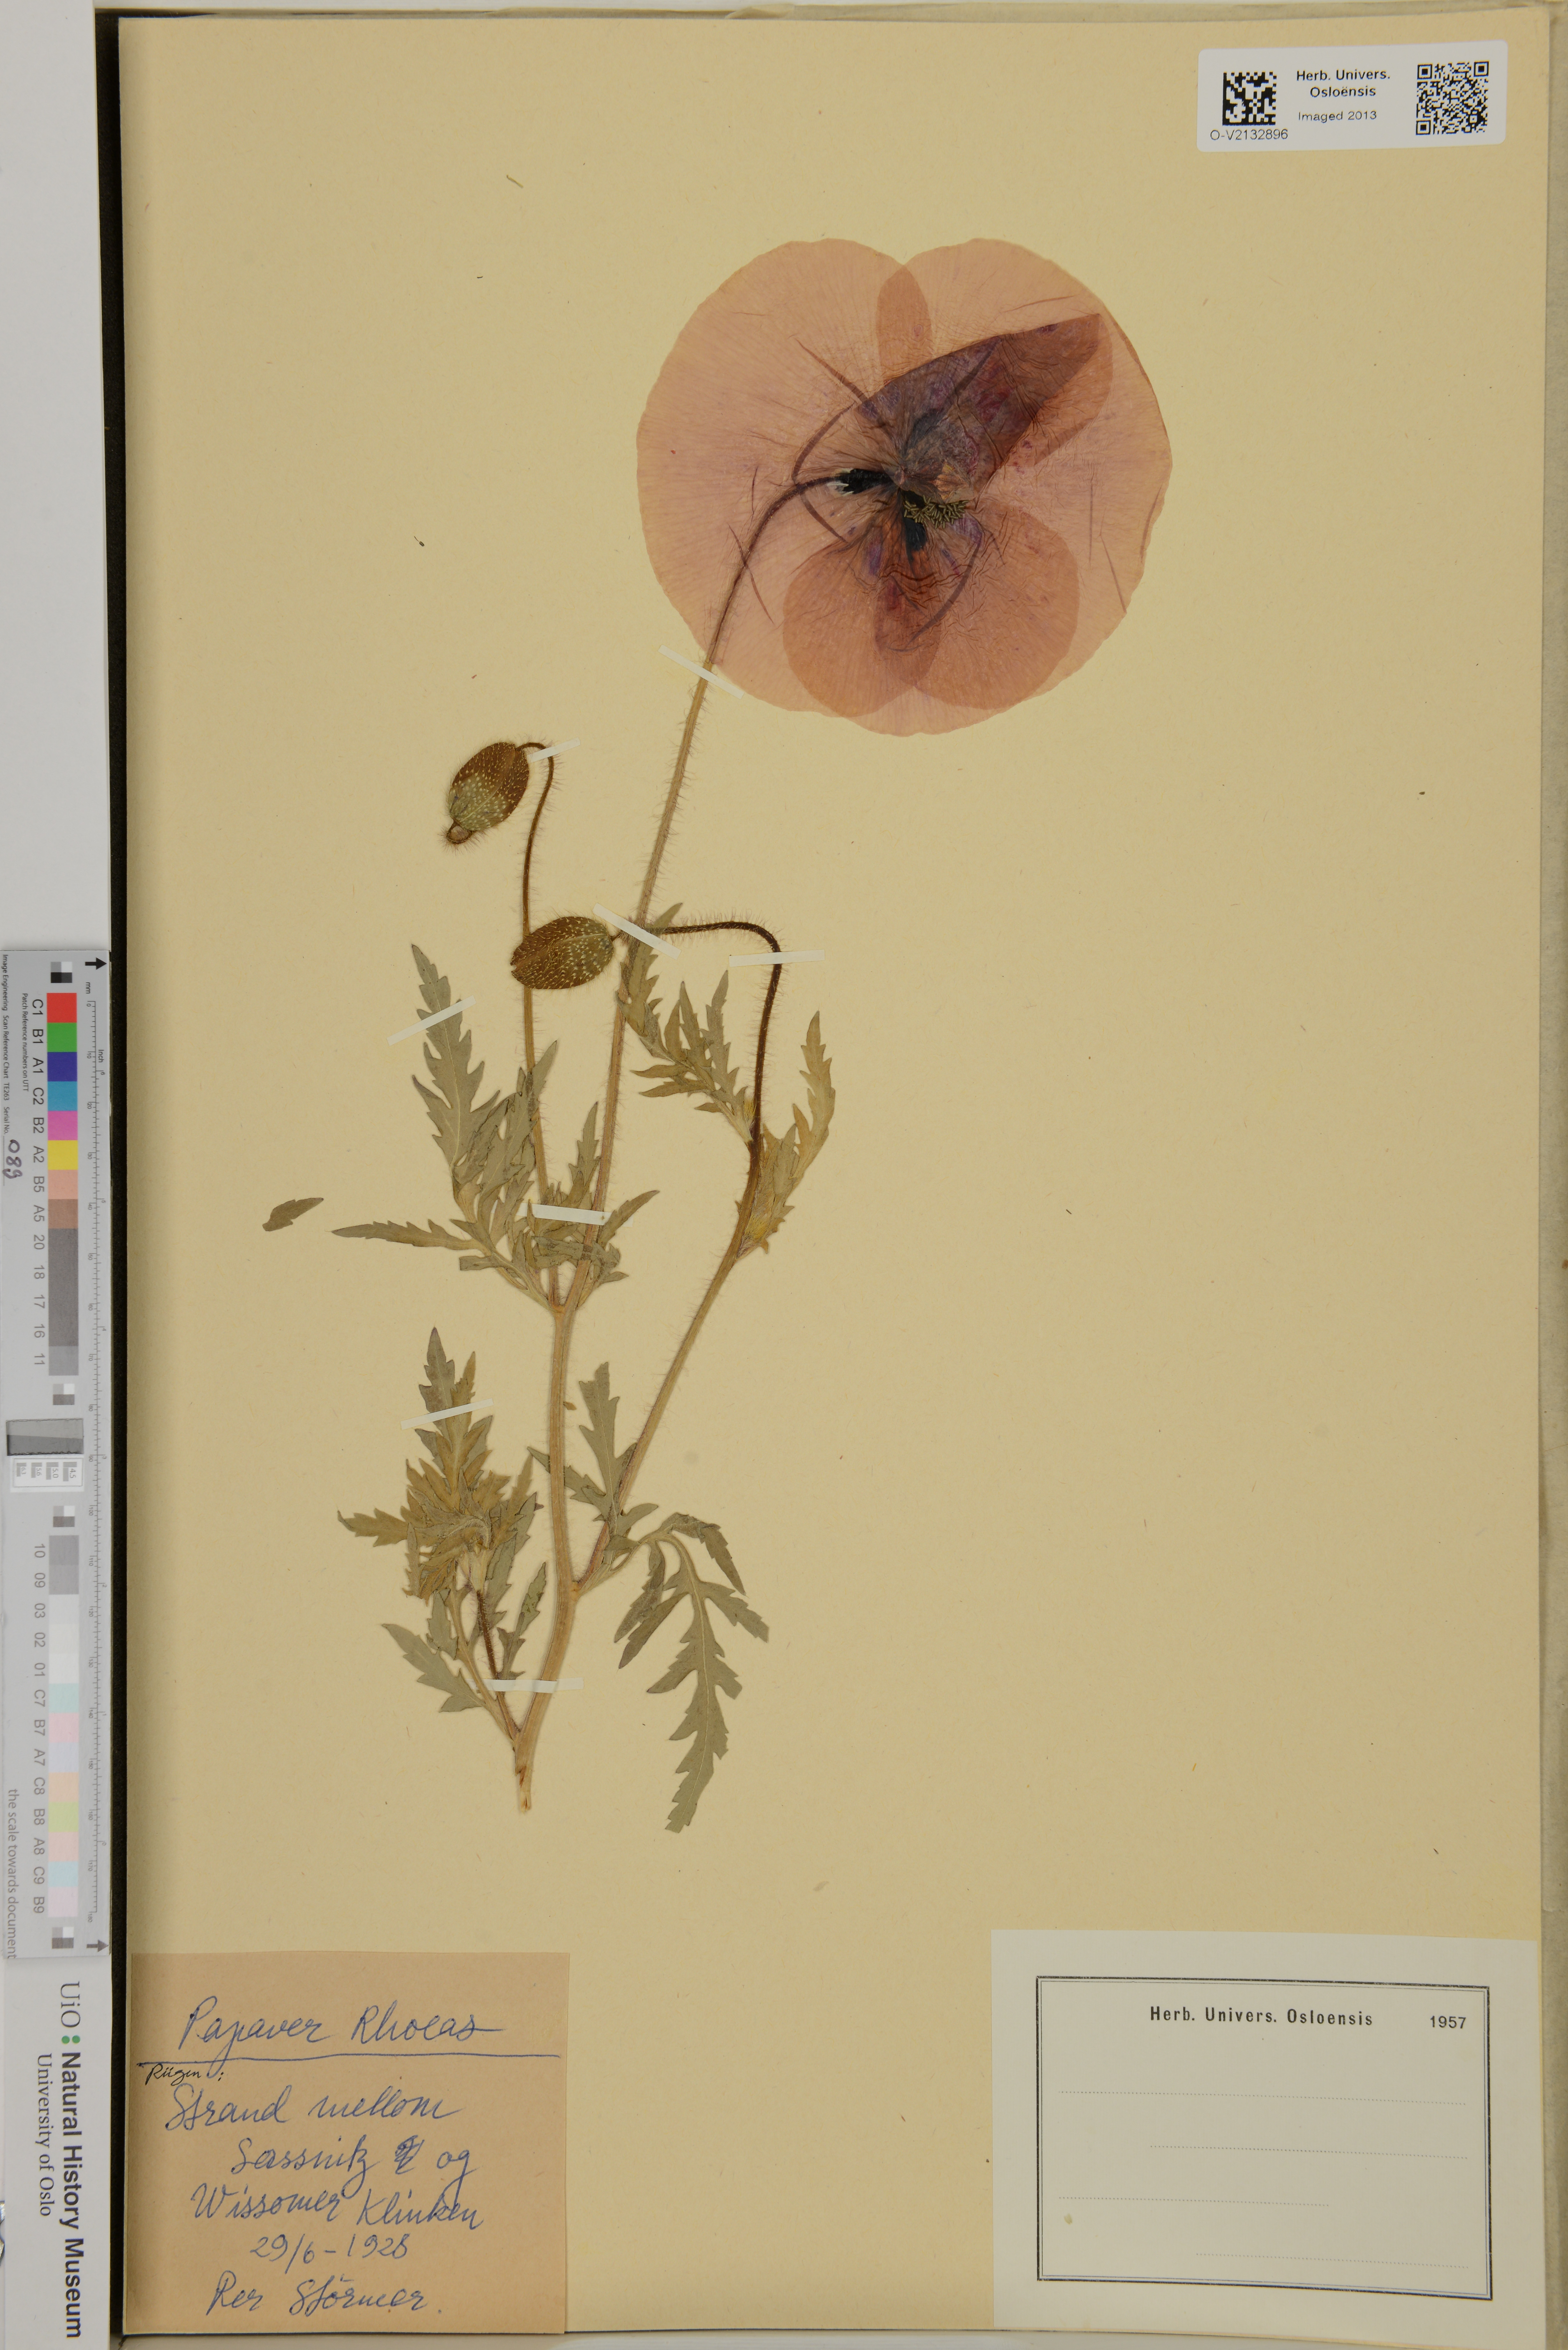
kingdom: Plantae
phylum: Tracheophyta
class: Magnoliopsida
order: Ranunculales
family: Papaveraceae
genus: Papaver
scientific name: Papaver rhoeas
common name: Corn poppy
